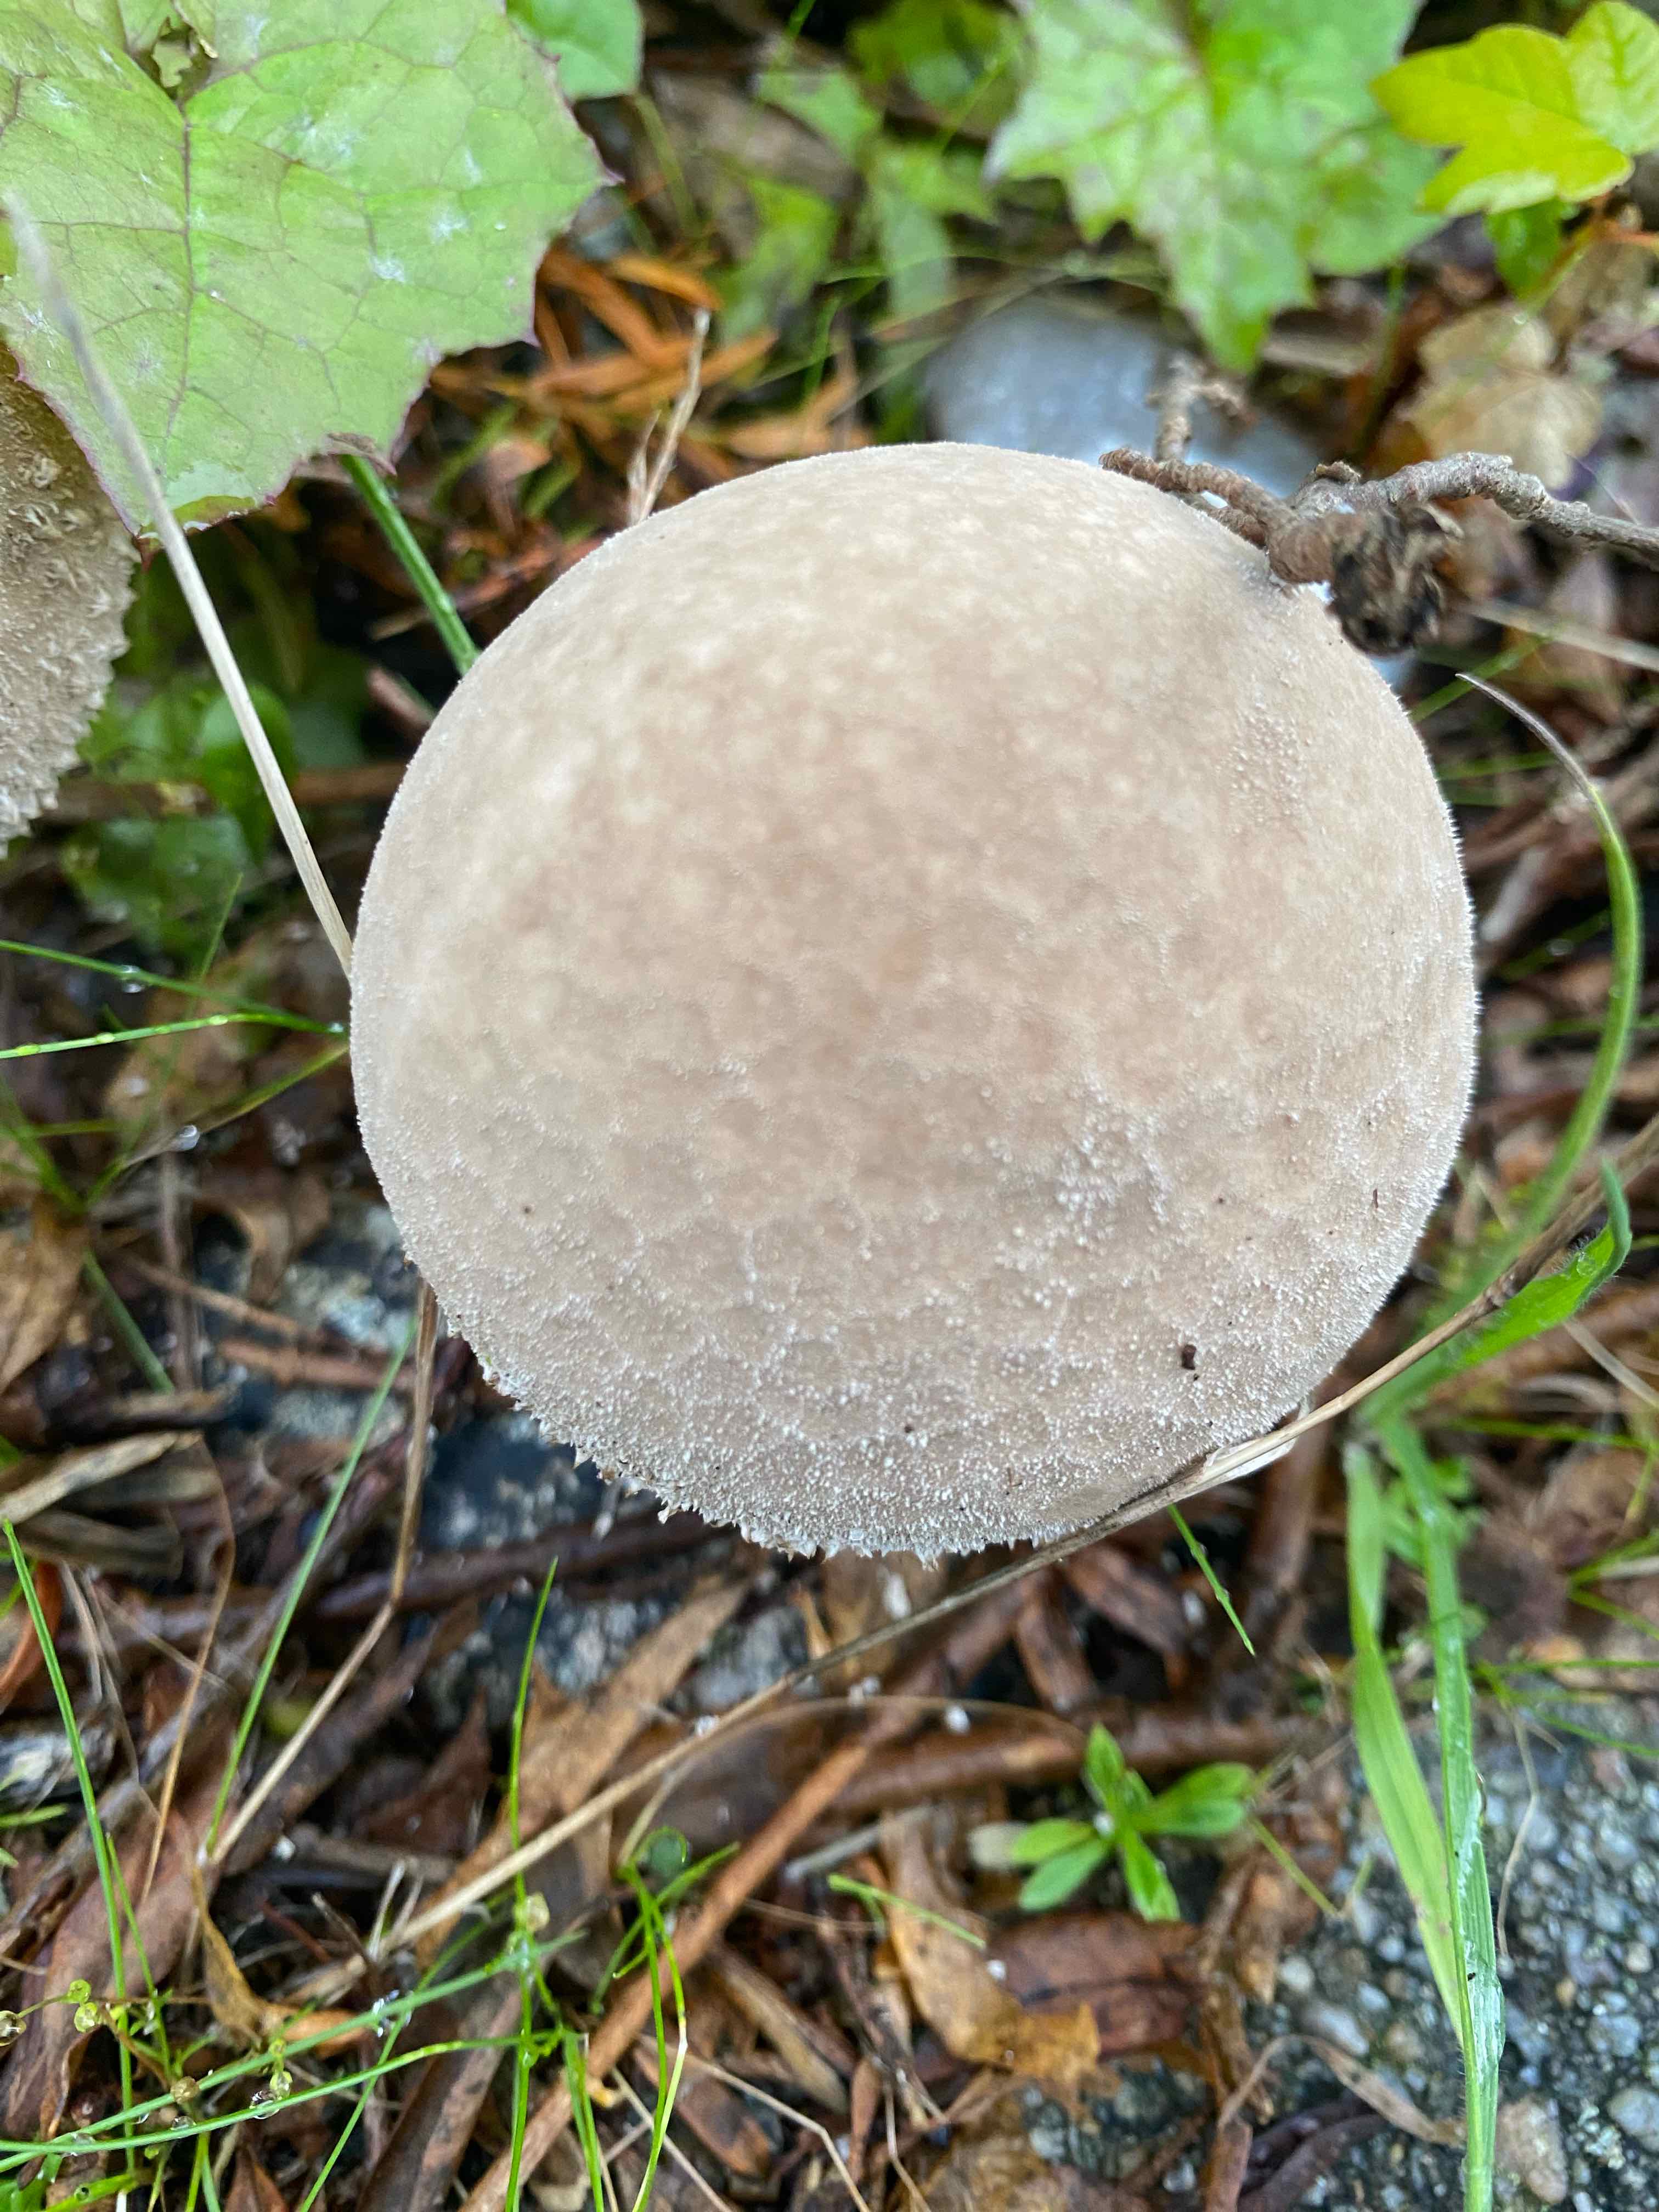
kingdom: Fungi
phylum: Basidiomycota
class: Agaricomycetes
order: Agaricales
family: Lycoperdaceae
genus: Lycoperdon
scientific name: Lycoperdon perlatum
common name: krystal-støvbold
